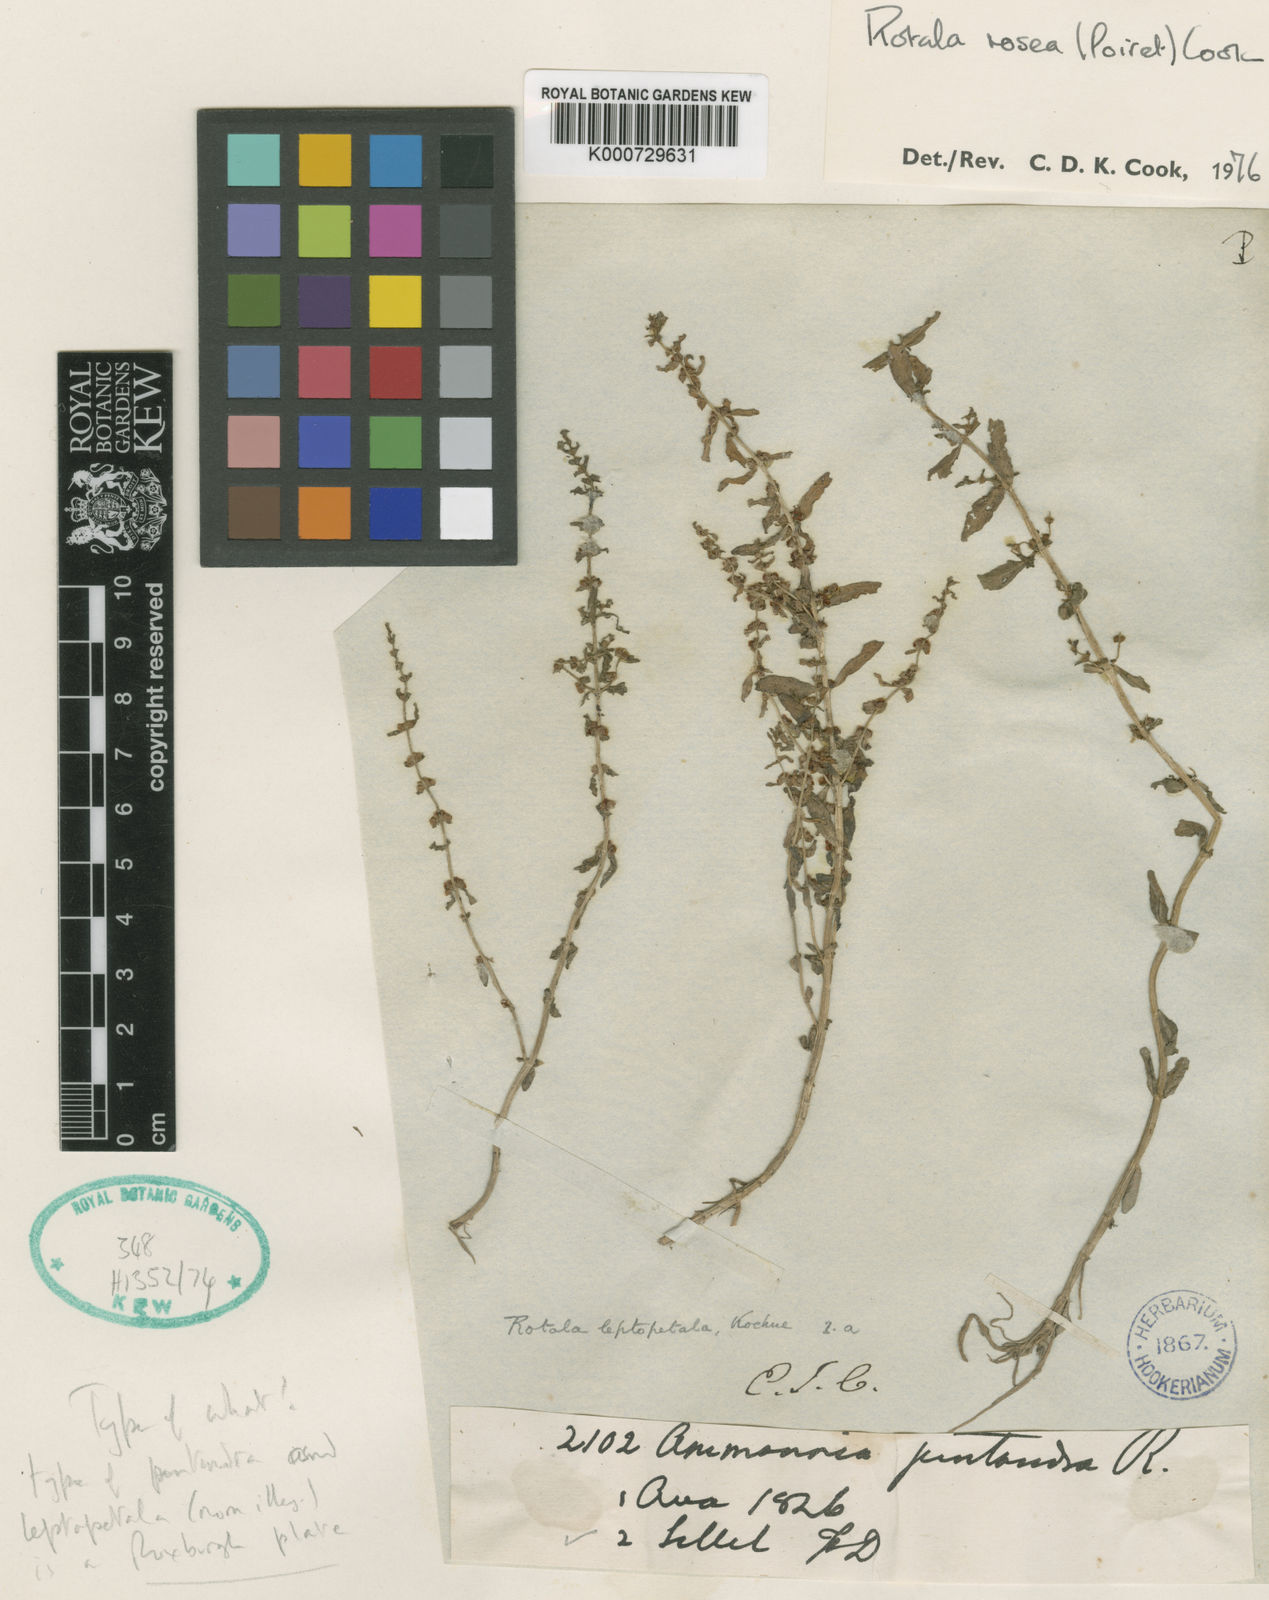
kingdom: Plantae
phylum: Tracheophyta
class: Magnoliopsida
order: Myrtales
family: Lythraceae
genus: Rotala
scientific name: Rotala rosea
